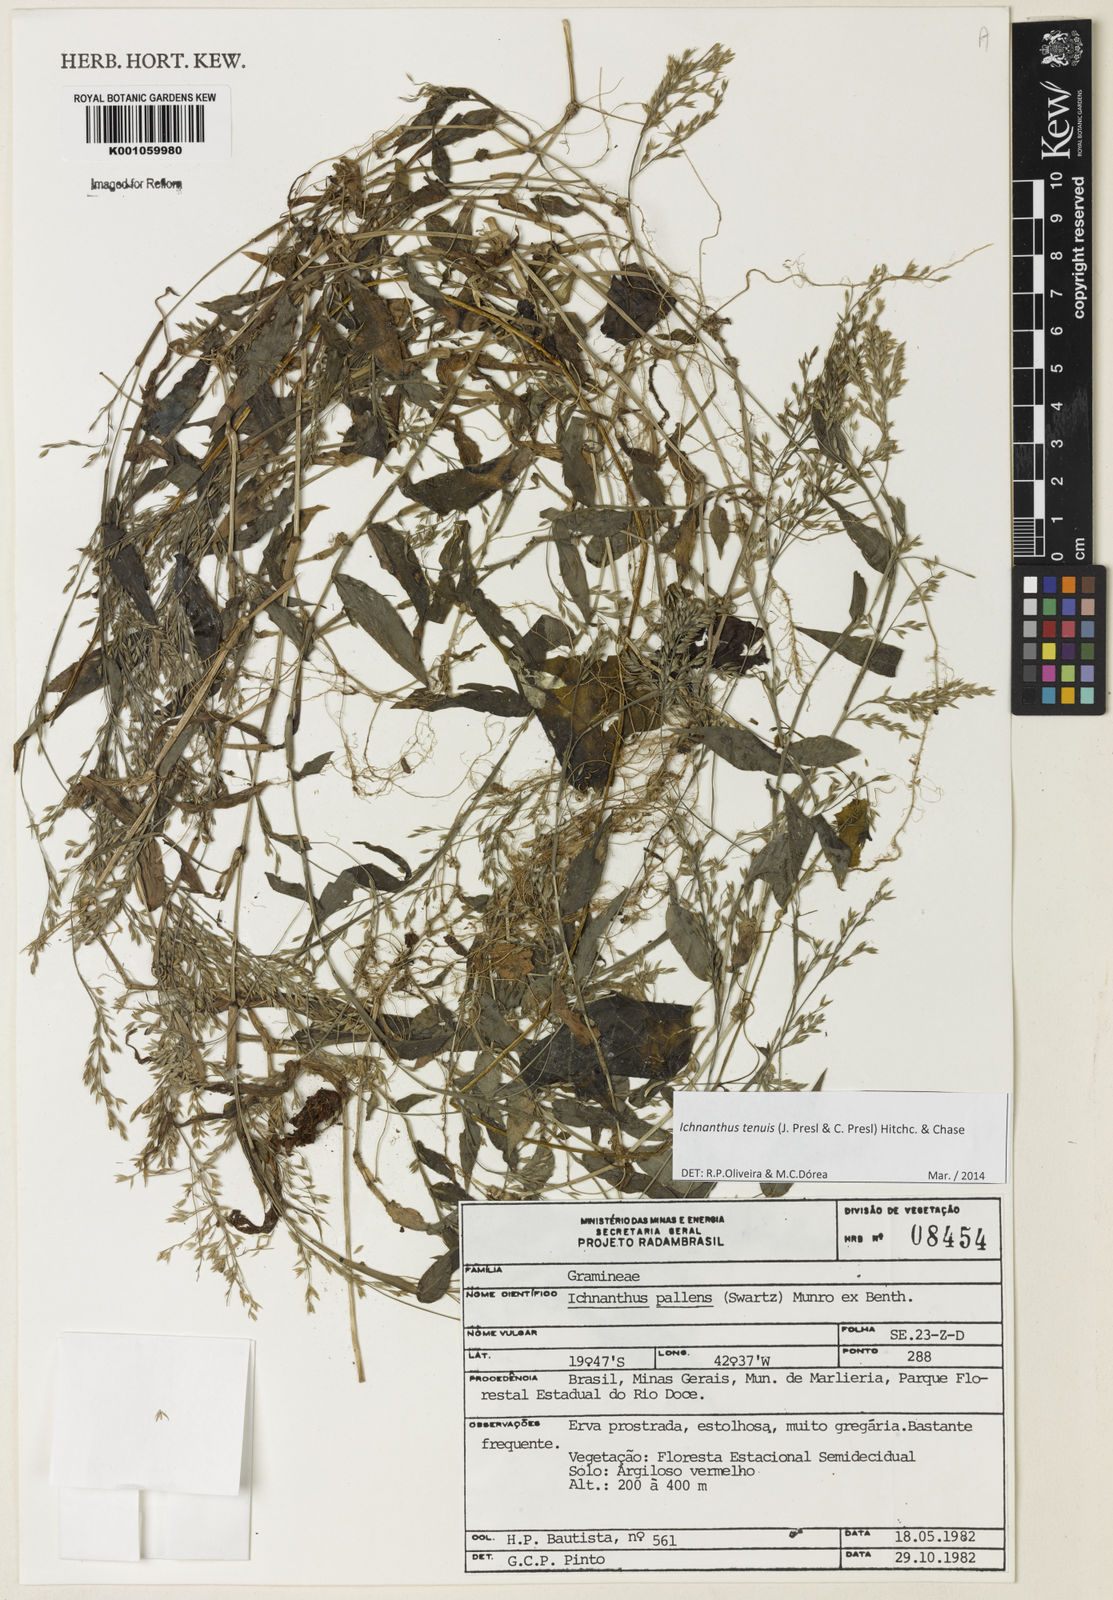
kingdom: Plantae
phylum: Tracheophyta
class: Liliopsida
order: Poales
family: Poaceae
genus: Ichnanthus
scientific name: Ichnanthus tenuis
